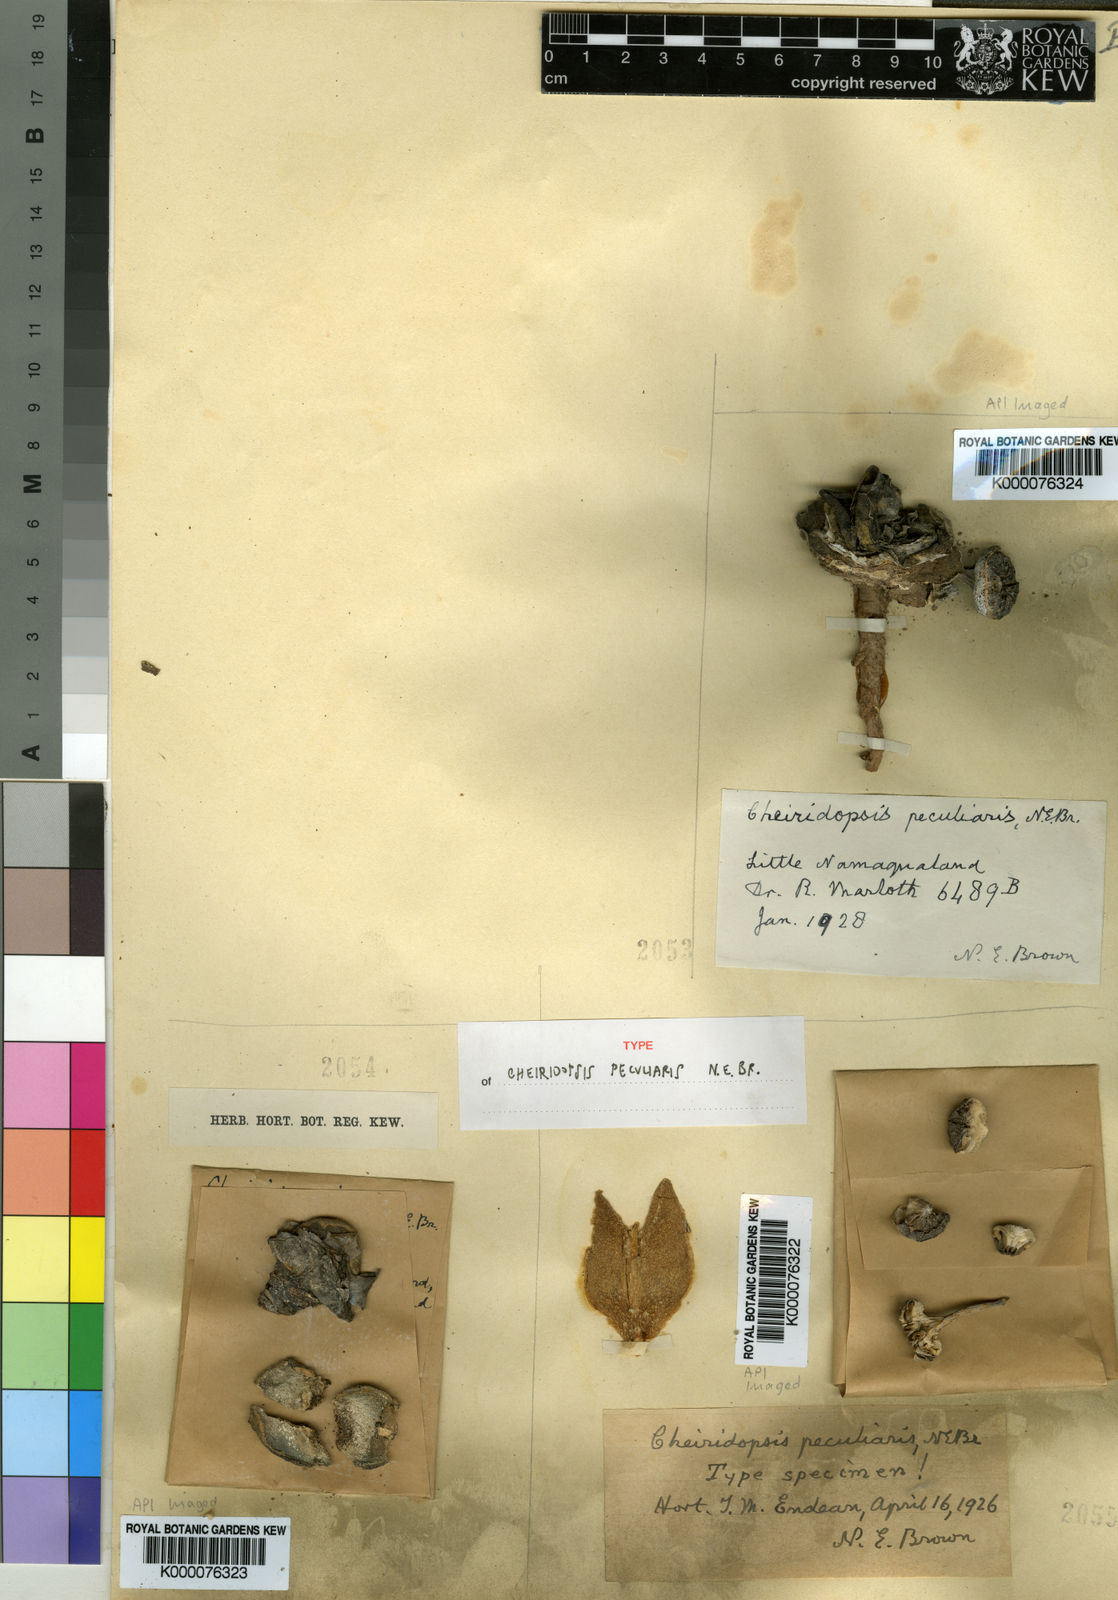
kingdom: Plantae
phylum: Tracheophyta
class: Magnoliopsida
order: Caryophyllales
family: Aizoaceae
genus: Cheiridopsis
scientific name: Cheiridopsis peculiaris
